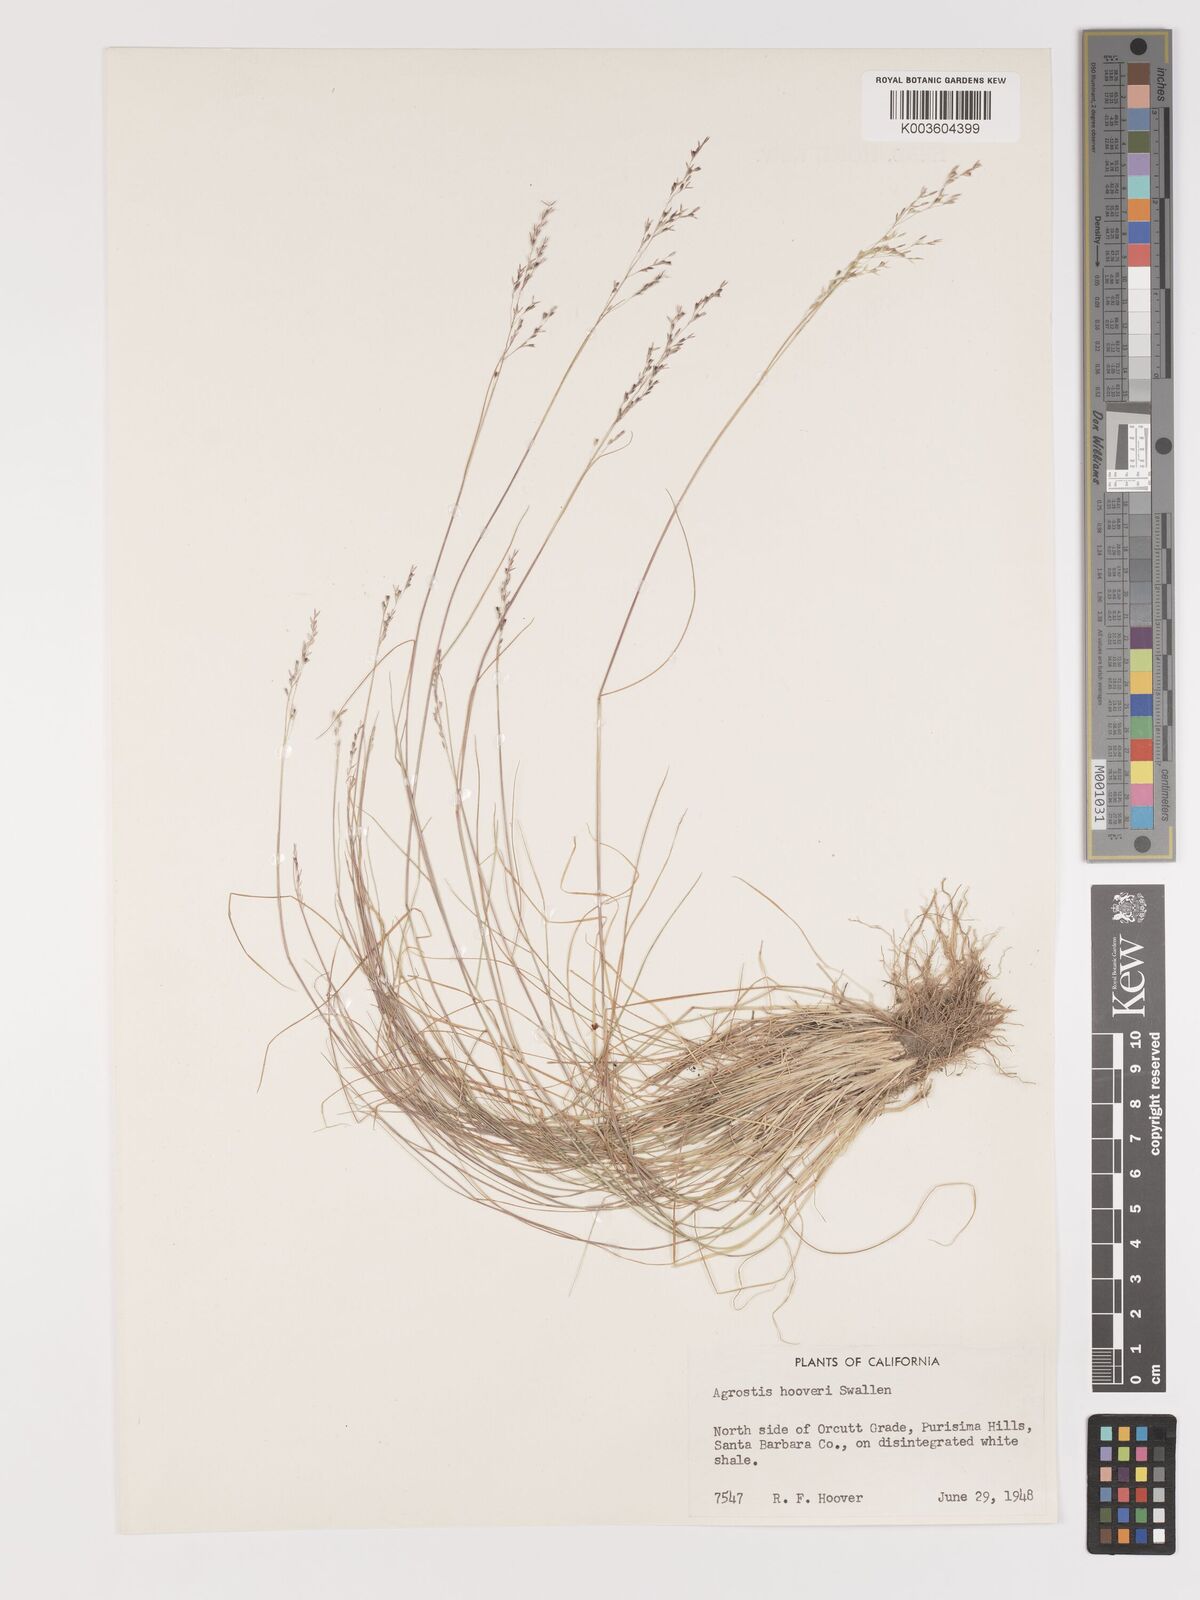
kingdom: Plantae
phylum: Tracheophyta
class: Liliopsida
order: Poales
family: Poaceae
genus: Agrostis
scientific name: Agrostis hooveri
